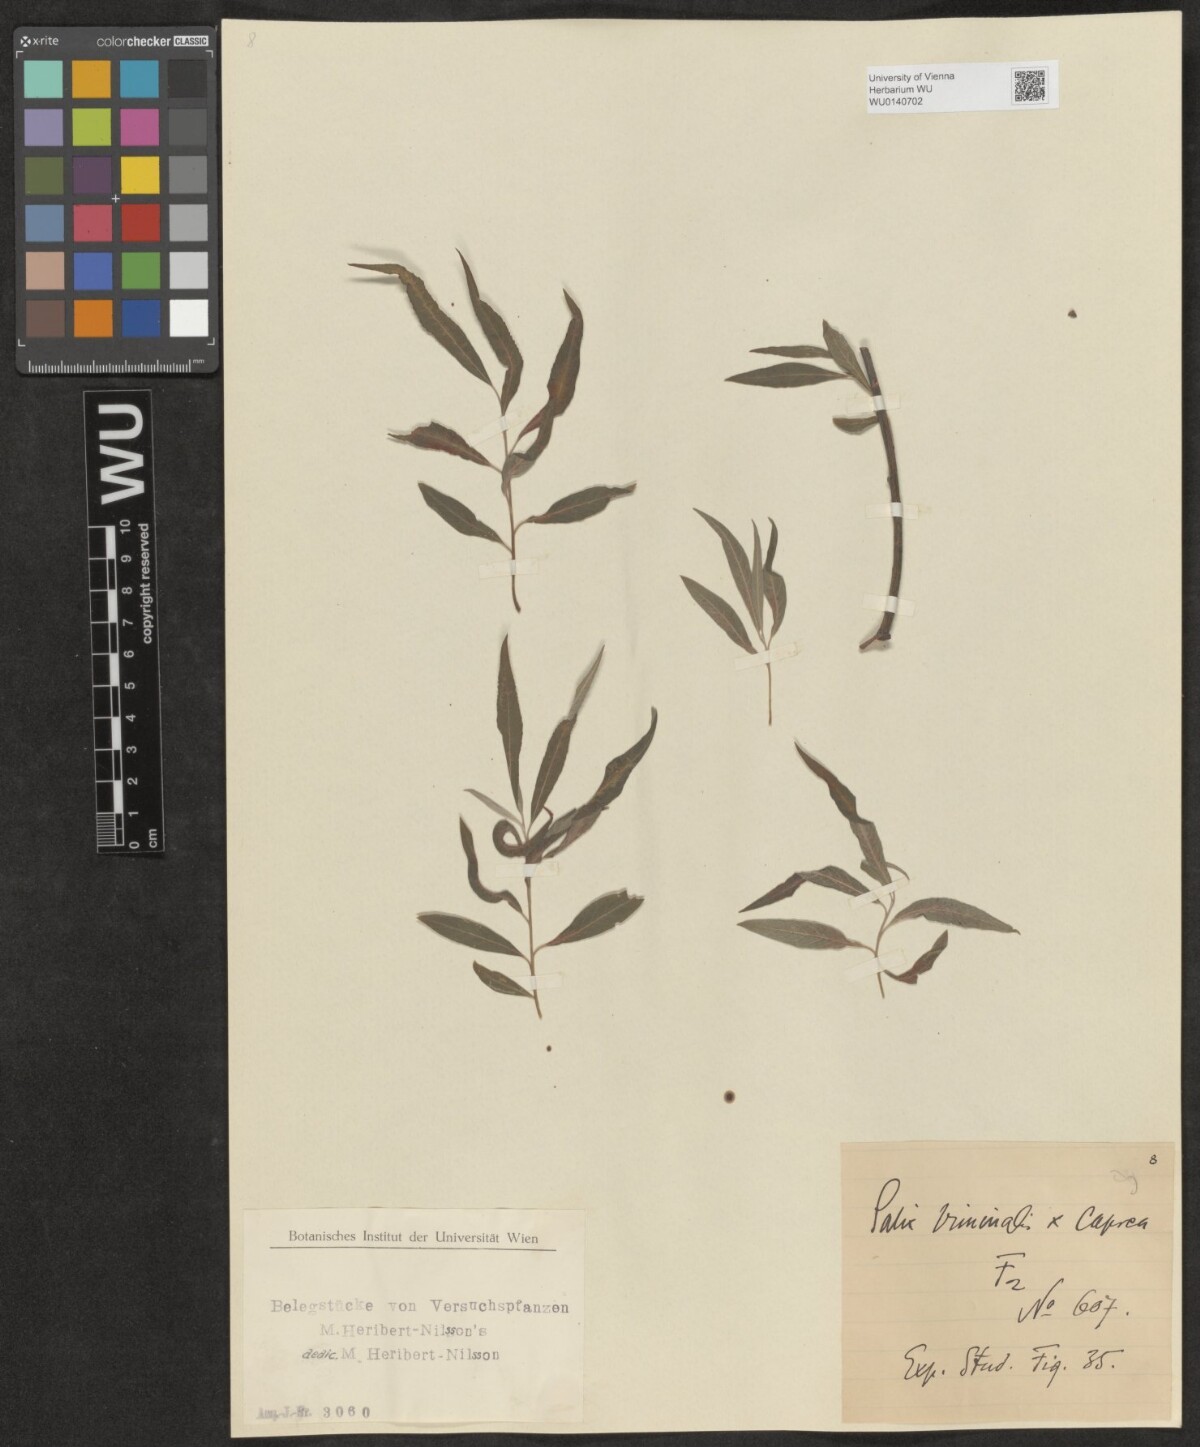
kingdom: Plantae
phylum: Tracheophyta
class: Magnoliopsida
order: Malpighiales
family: Salicaceae
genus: Salix
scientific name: Salix
